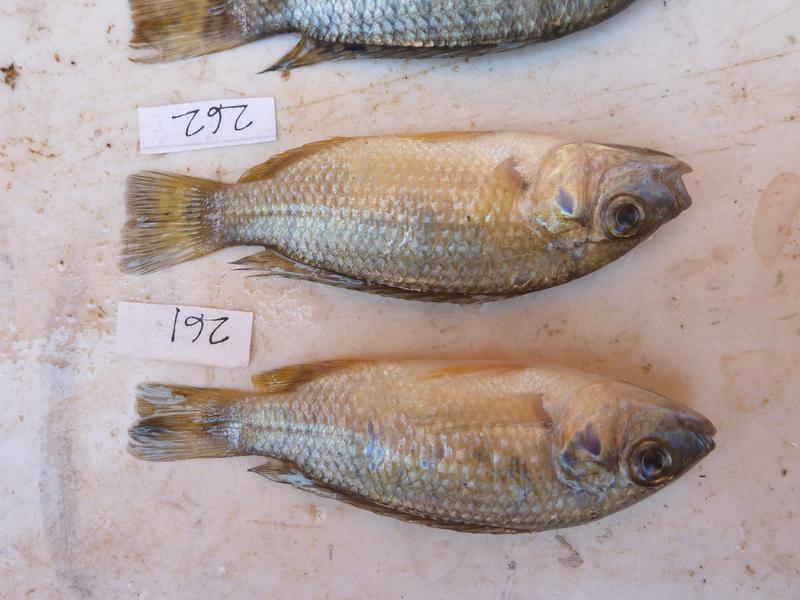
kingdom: Animalia
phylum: Chordata
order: Perciformes
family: Cichlidae
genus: Oreochromis
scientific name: Oreochromis
